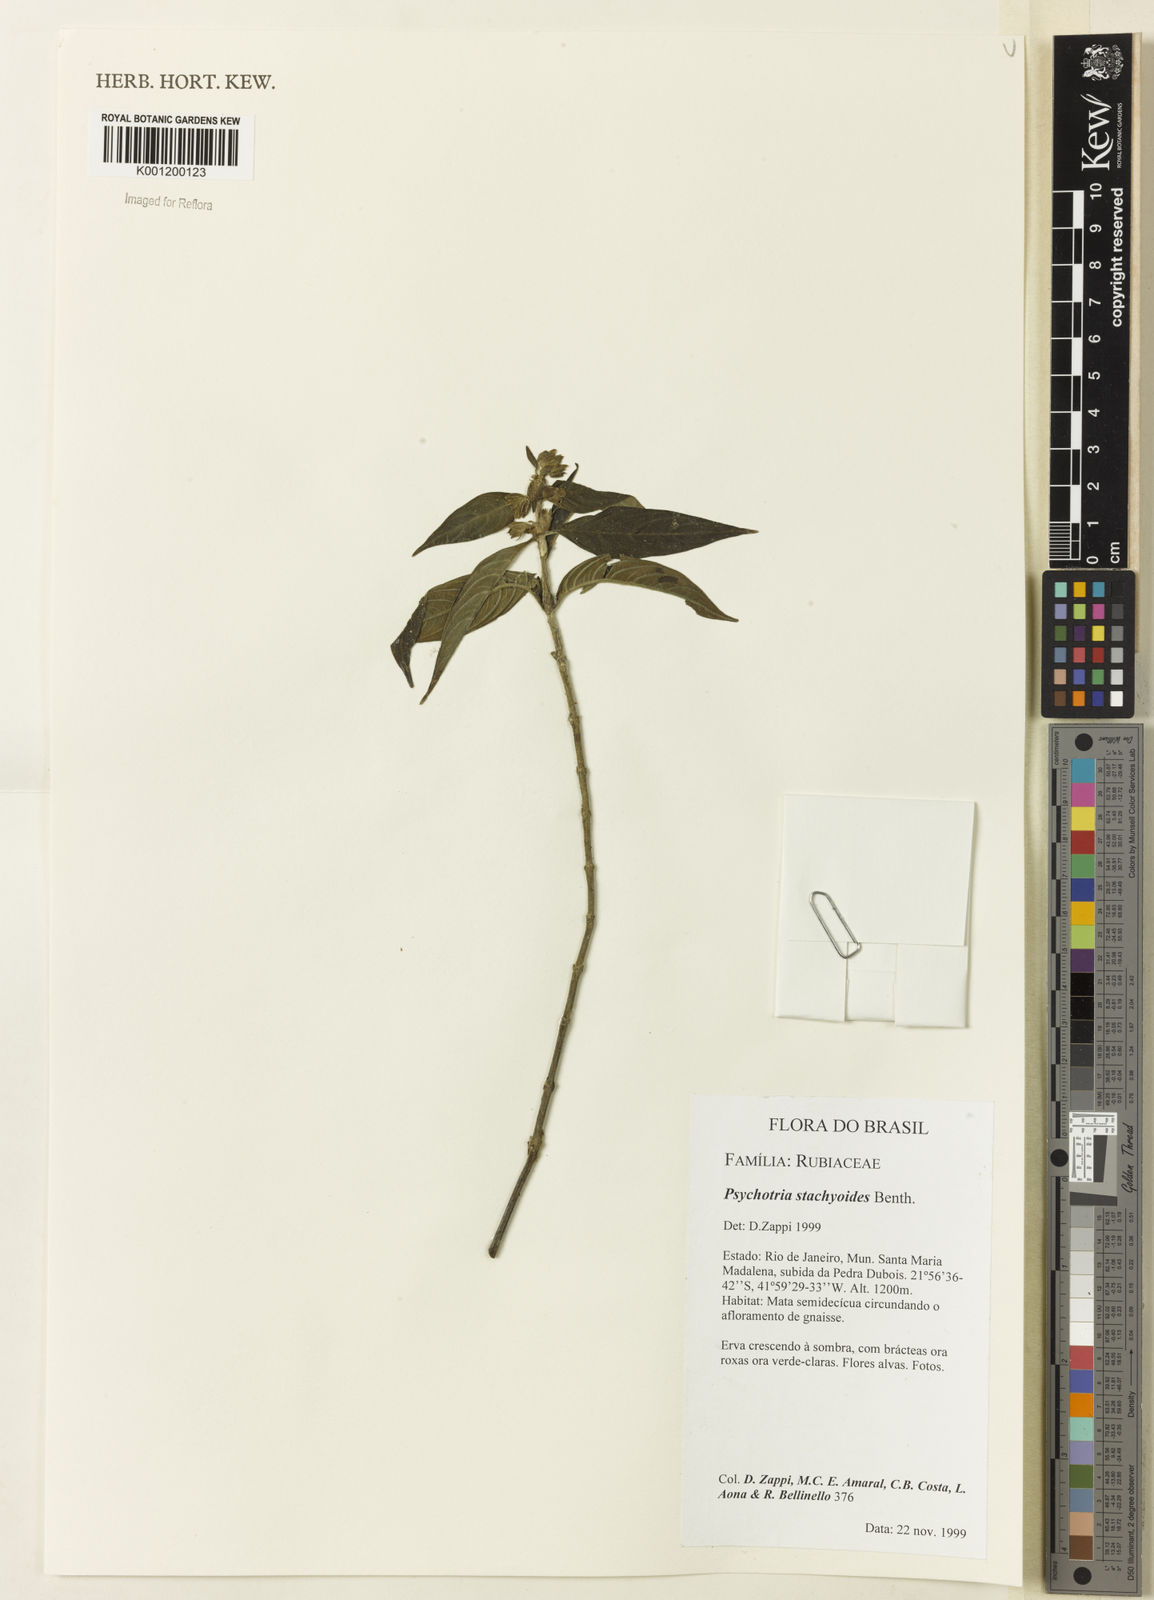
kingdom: Plantae
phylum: Tracheophyta
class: Magnoliopsida
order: Gentianales
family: Rubiaceae
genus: Psychotria
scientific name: Psychotria stachyoides
